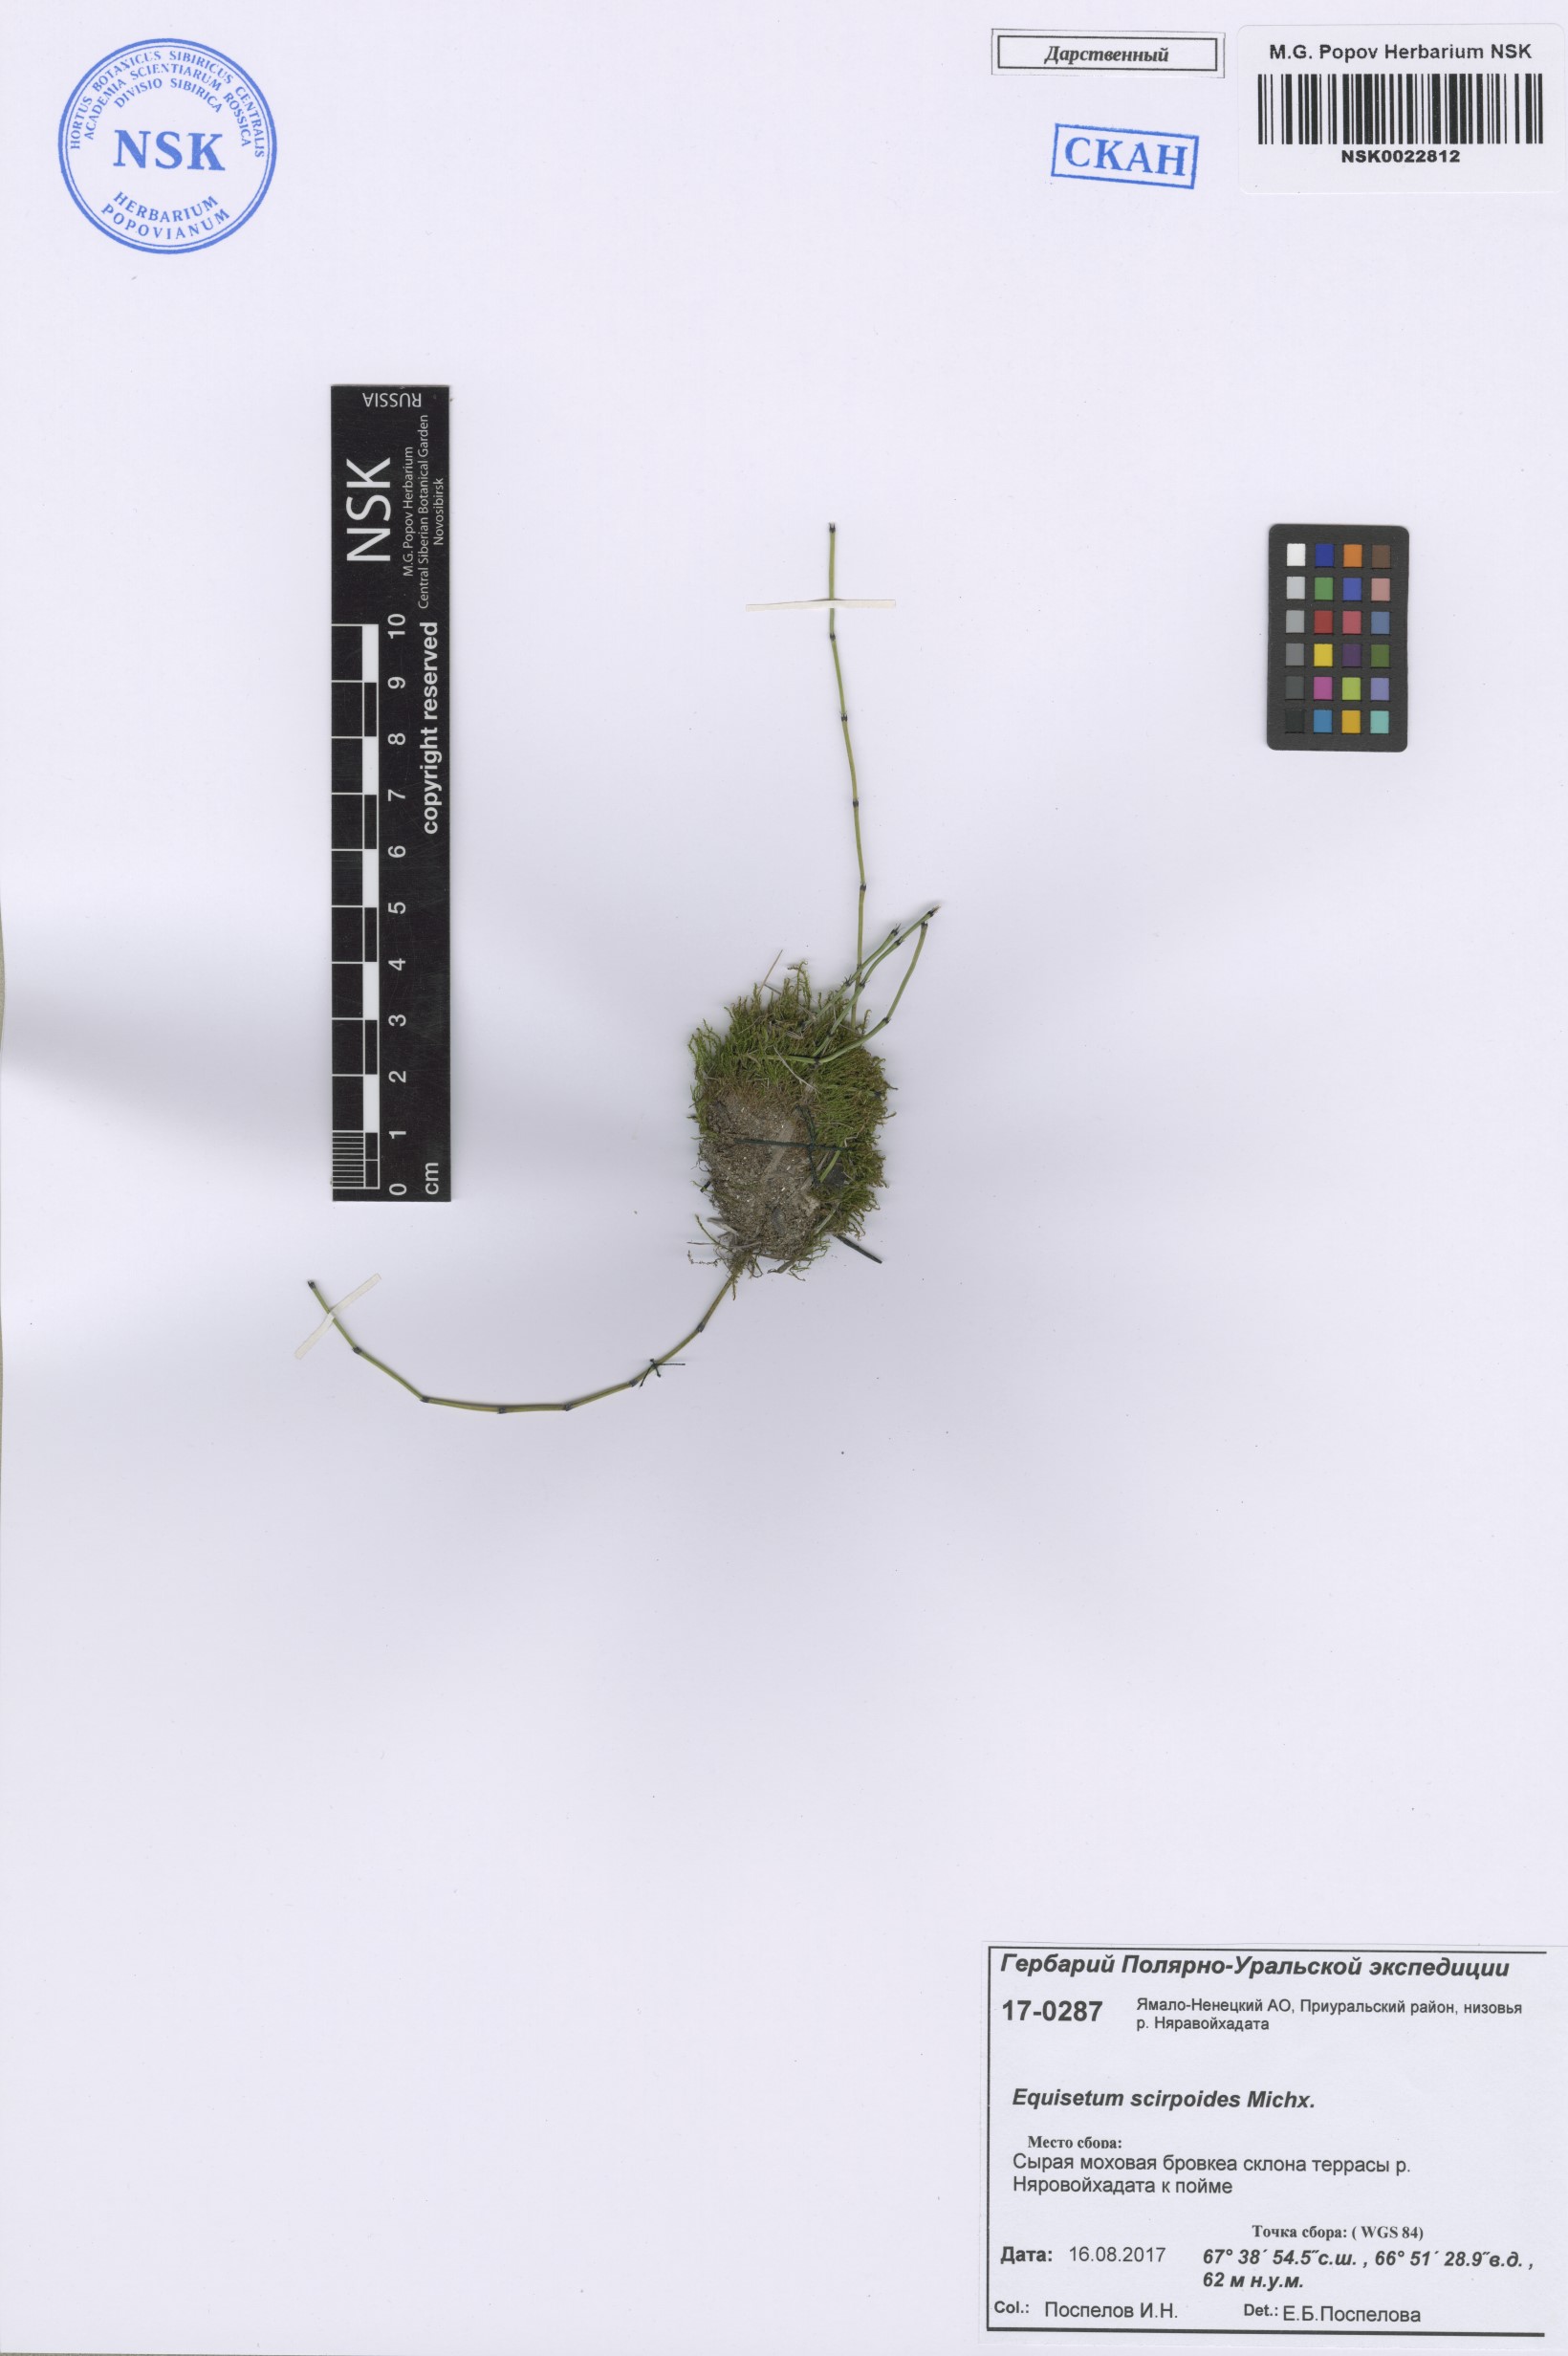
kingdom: Plantae
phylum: Tracheophyta
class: Polypodiopsida
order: Equisetales
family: Equisetaceae
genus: Equisetum
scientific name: Equisetum scirpoides
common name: Delicate horsetail
